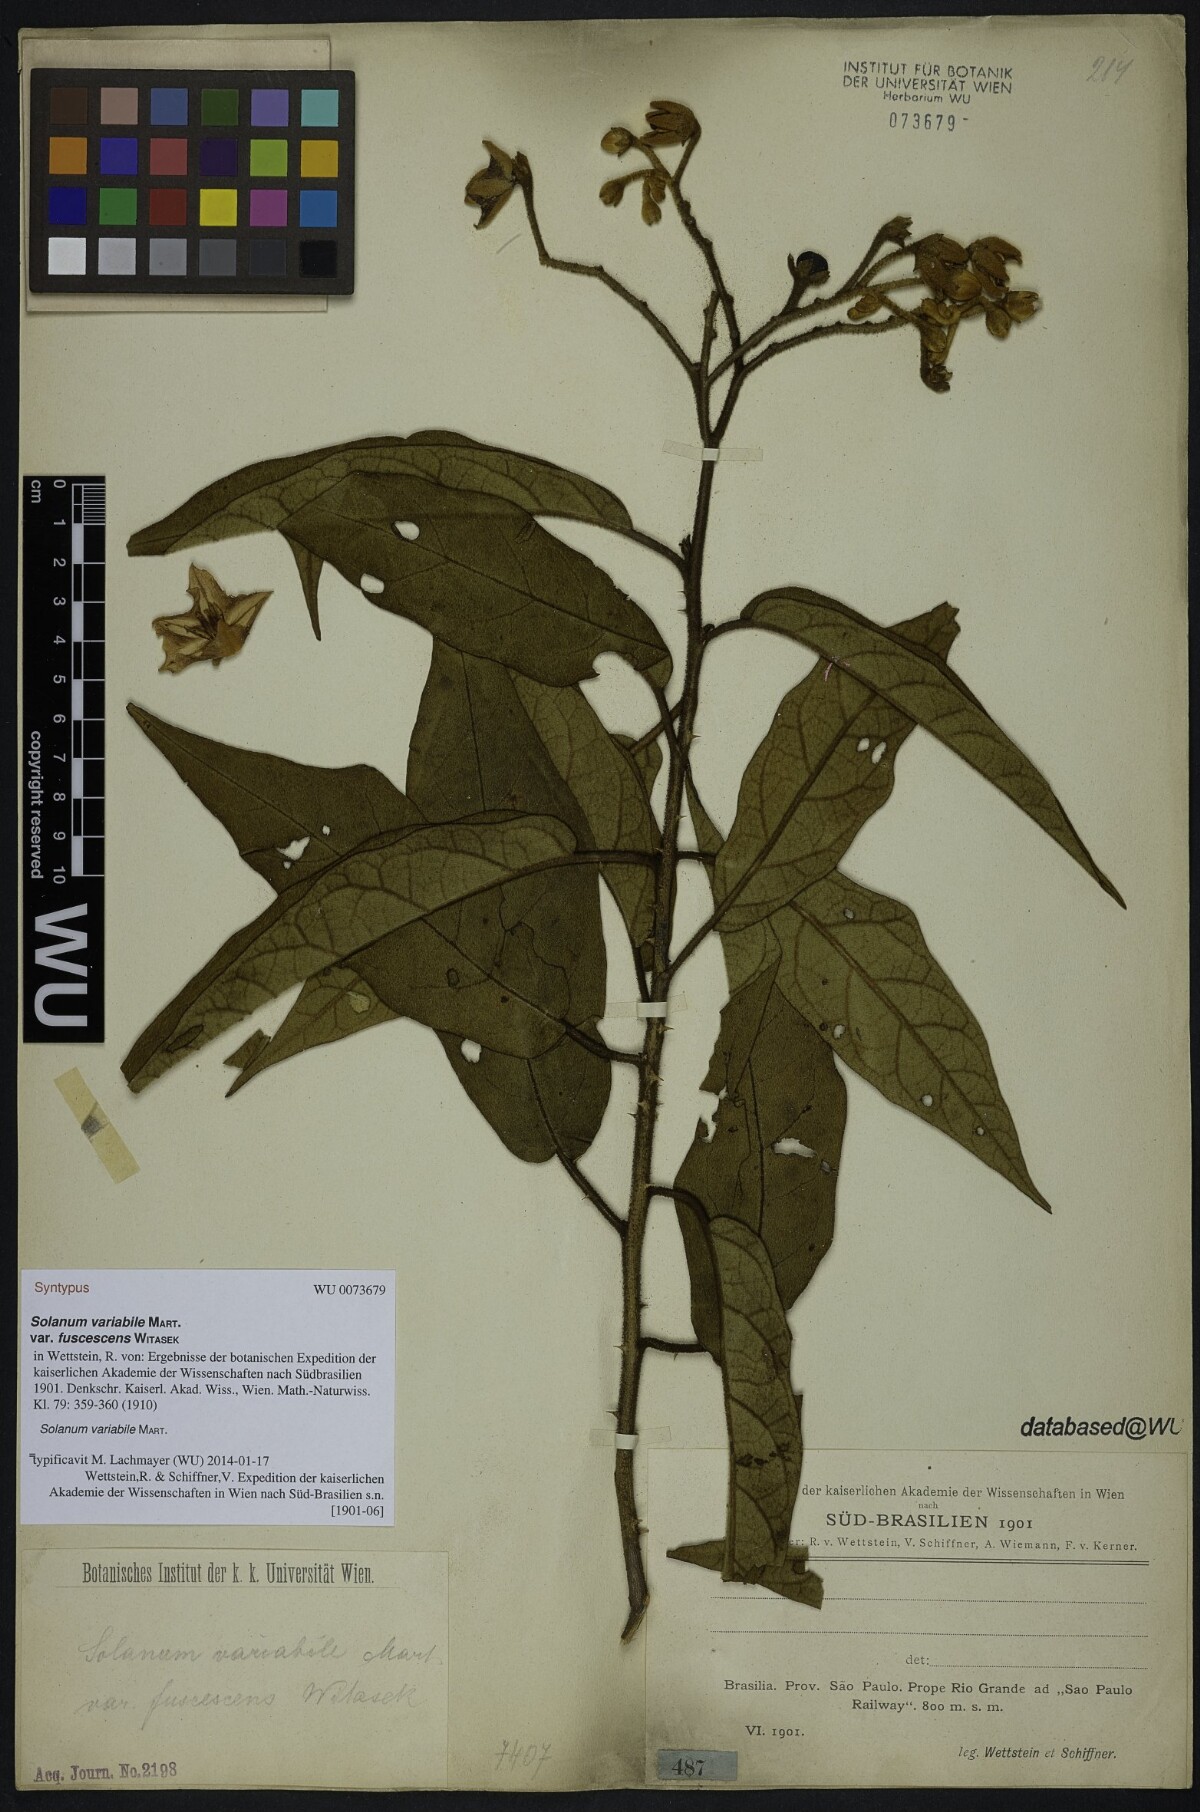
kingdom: Plantae
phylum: Tracheophyta
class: Magnoliopsida
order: Solanales
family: Solanaceae
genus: Solanum
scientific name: Solanum variabile
